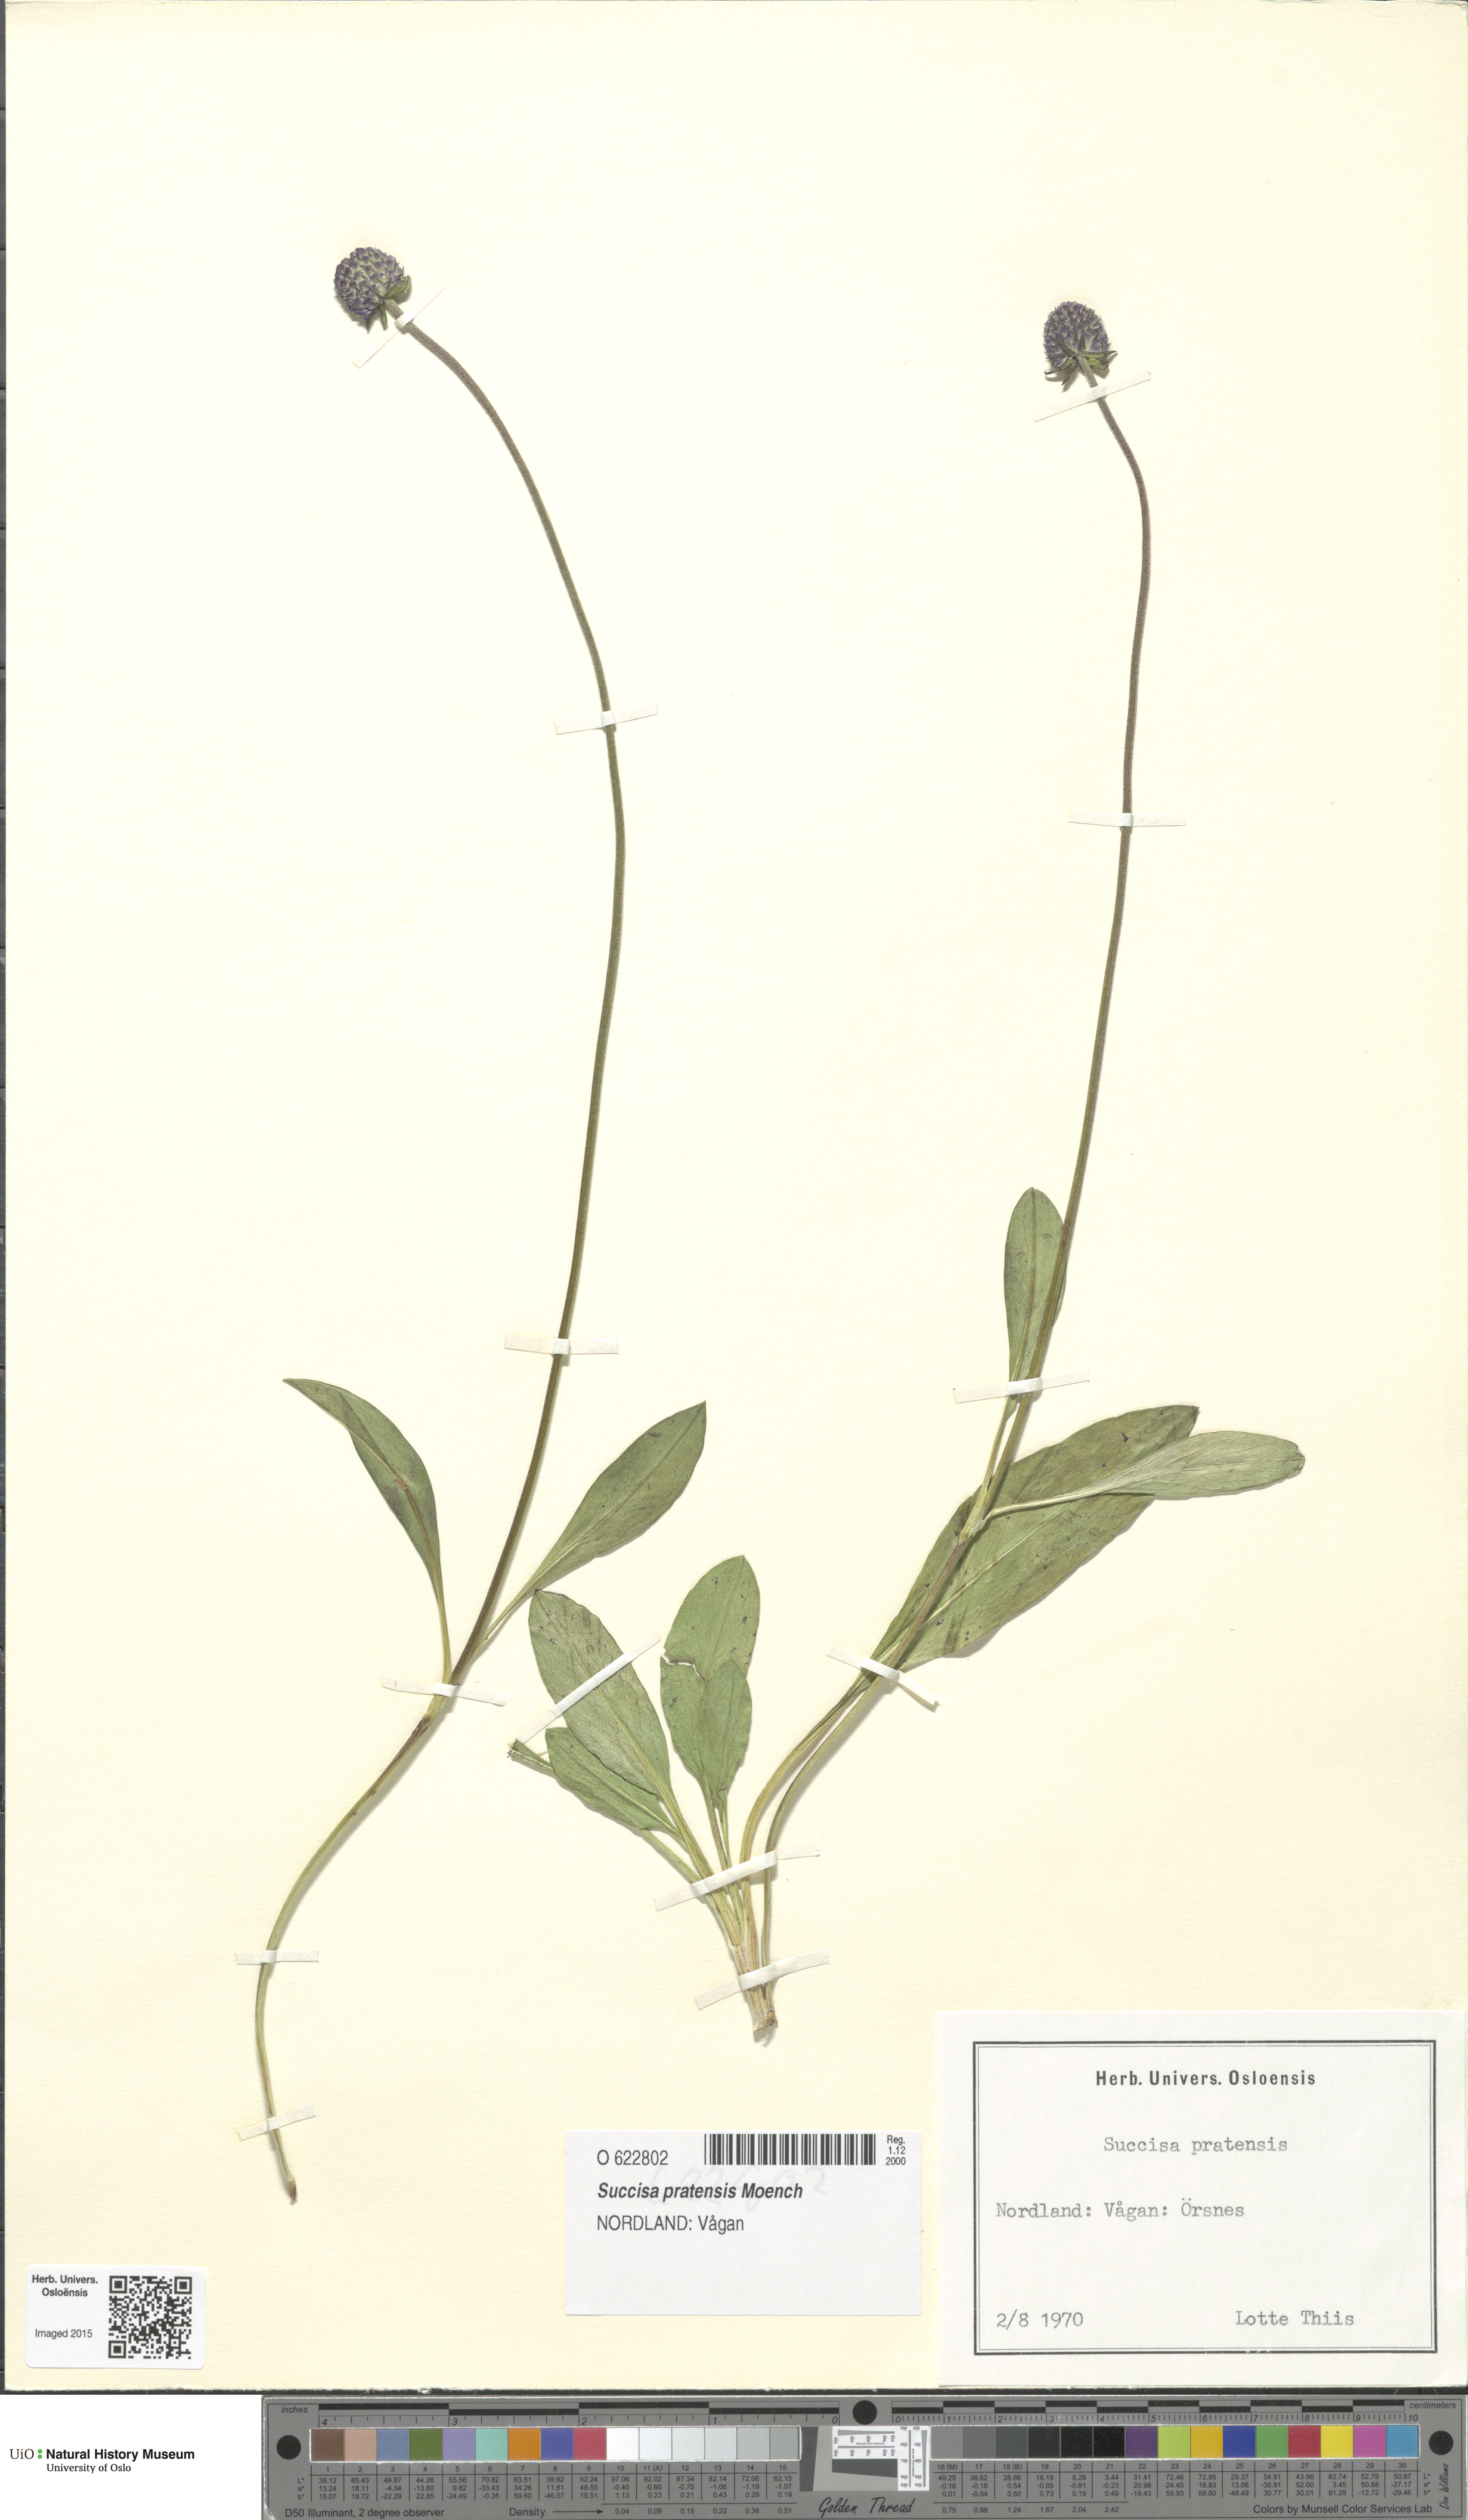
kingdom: Plantae
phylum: Tracheophyta
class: Magnoliopsida
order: Dipsacales
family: Caprifoliaceae
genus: Succisa
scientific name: Succisa pratensis
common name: Devil's-bit
